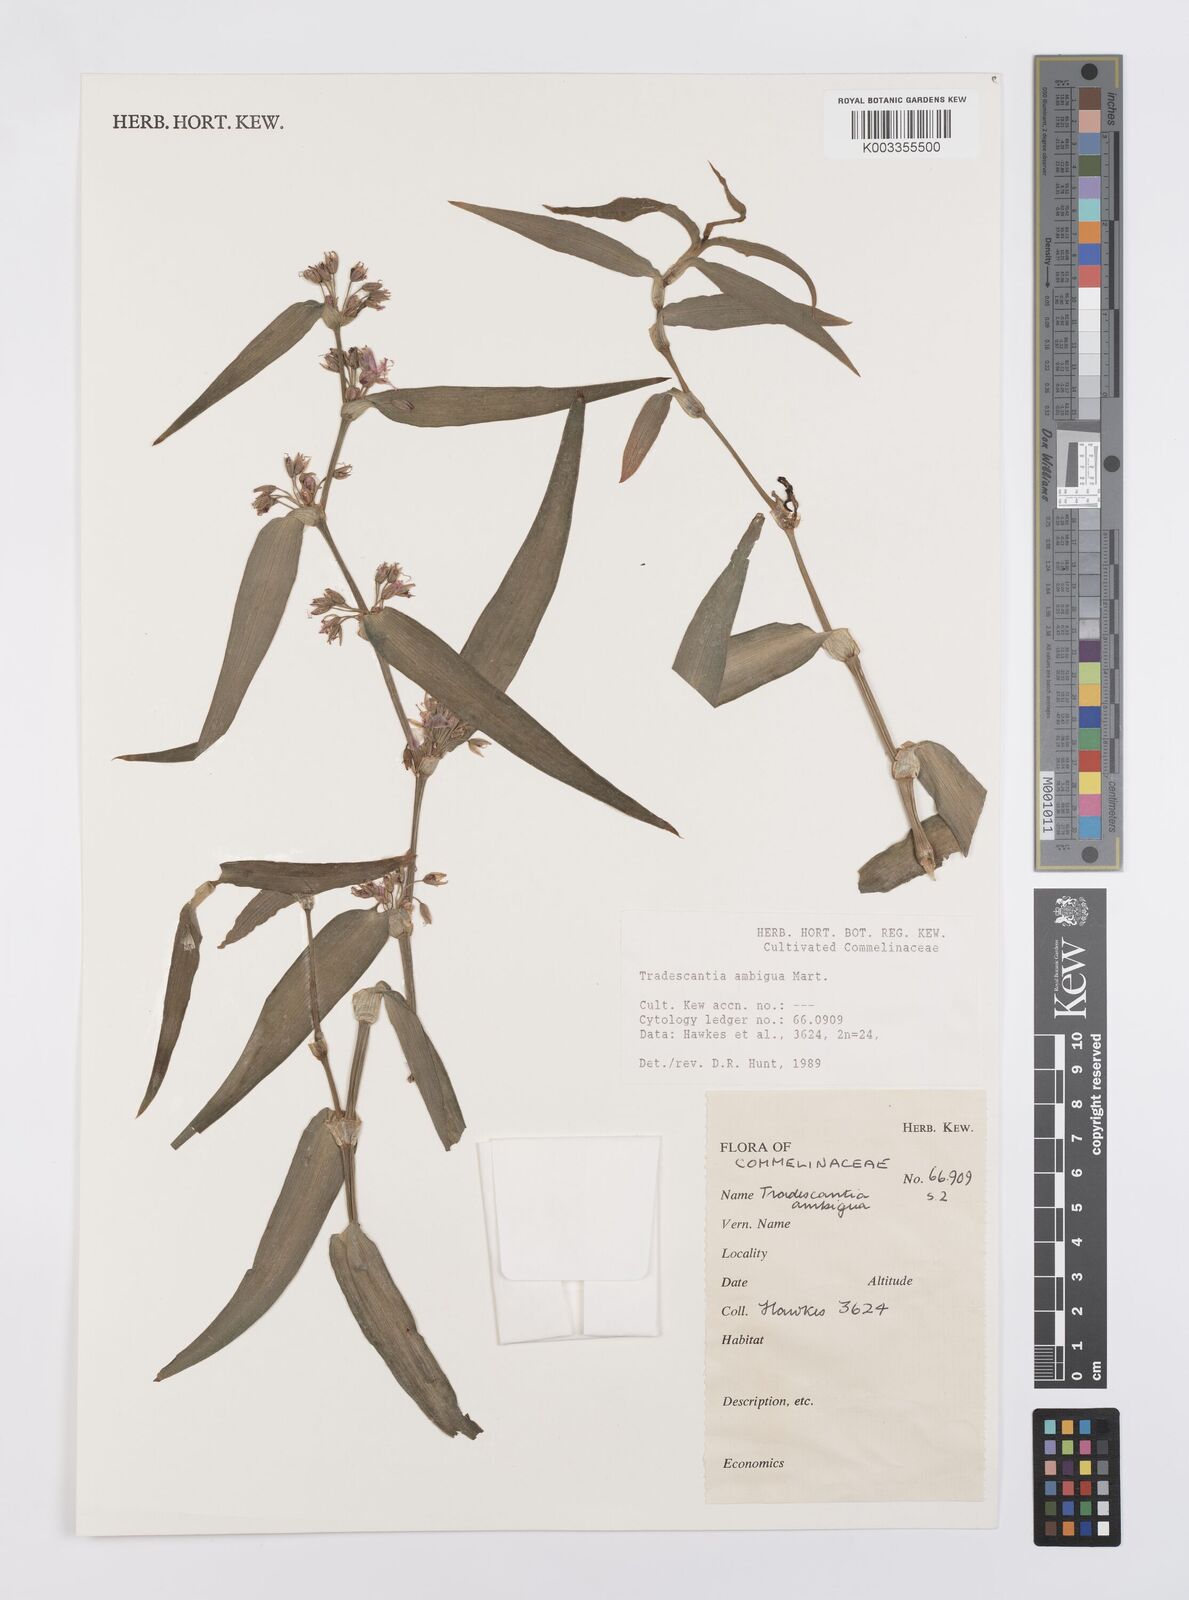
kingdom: Plantae
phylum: Tracheophyta
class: Liliopsida
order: Commelinales
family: Commelinaceae
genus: Tradescantia
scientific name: Tradescantia ambigua
